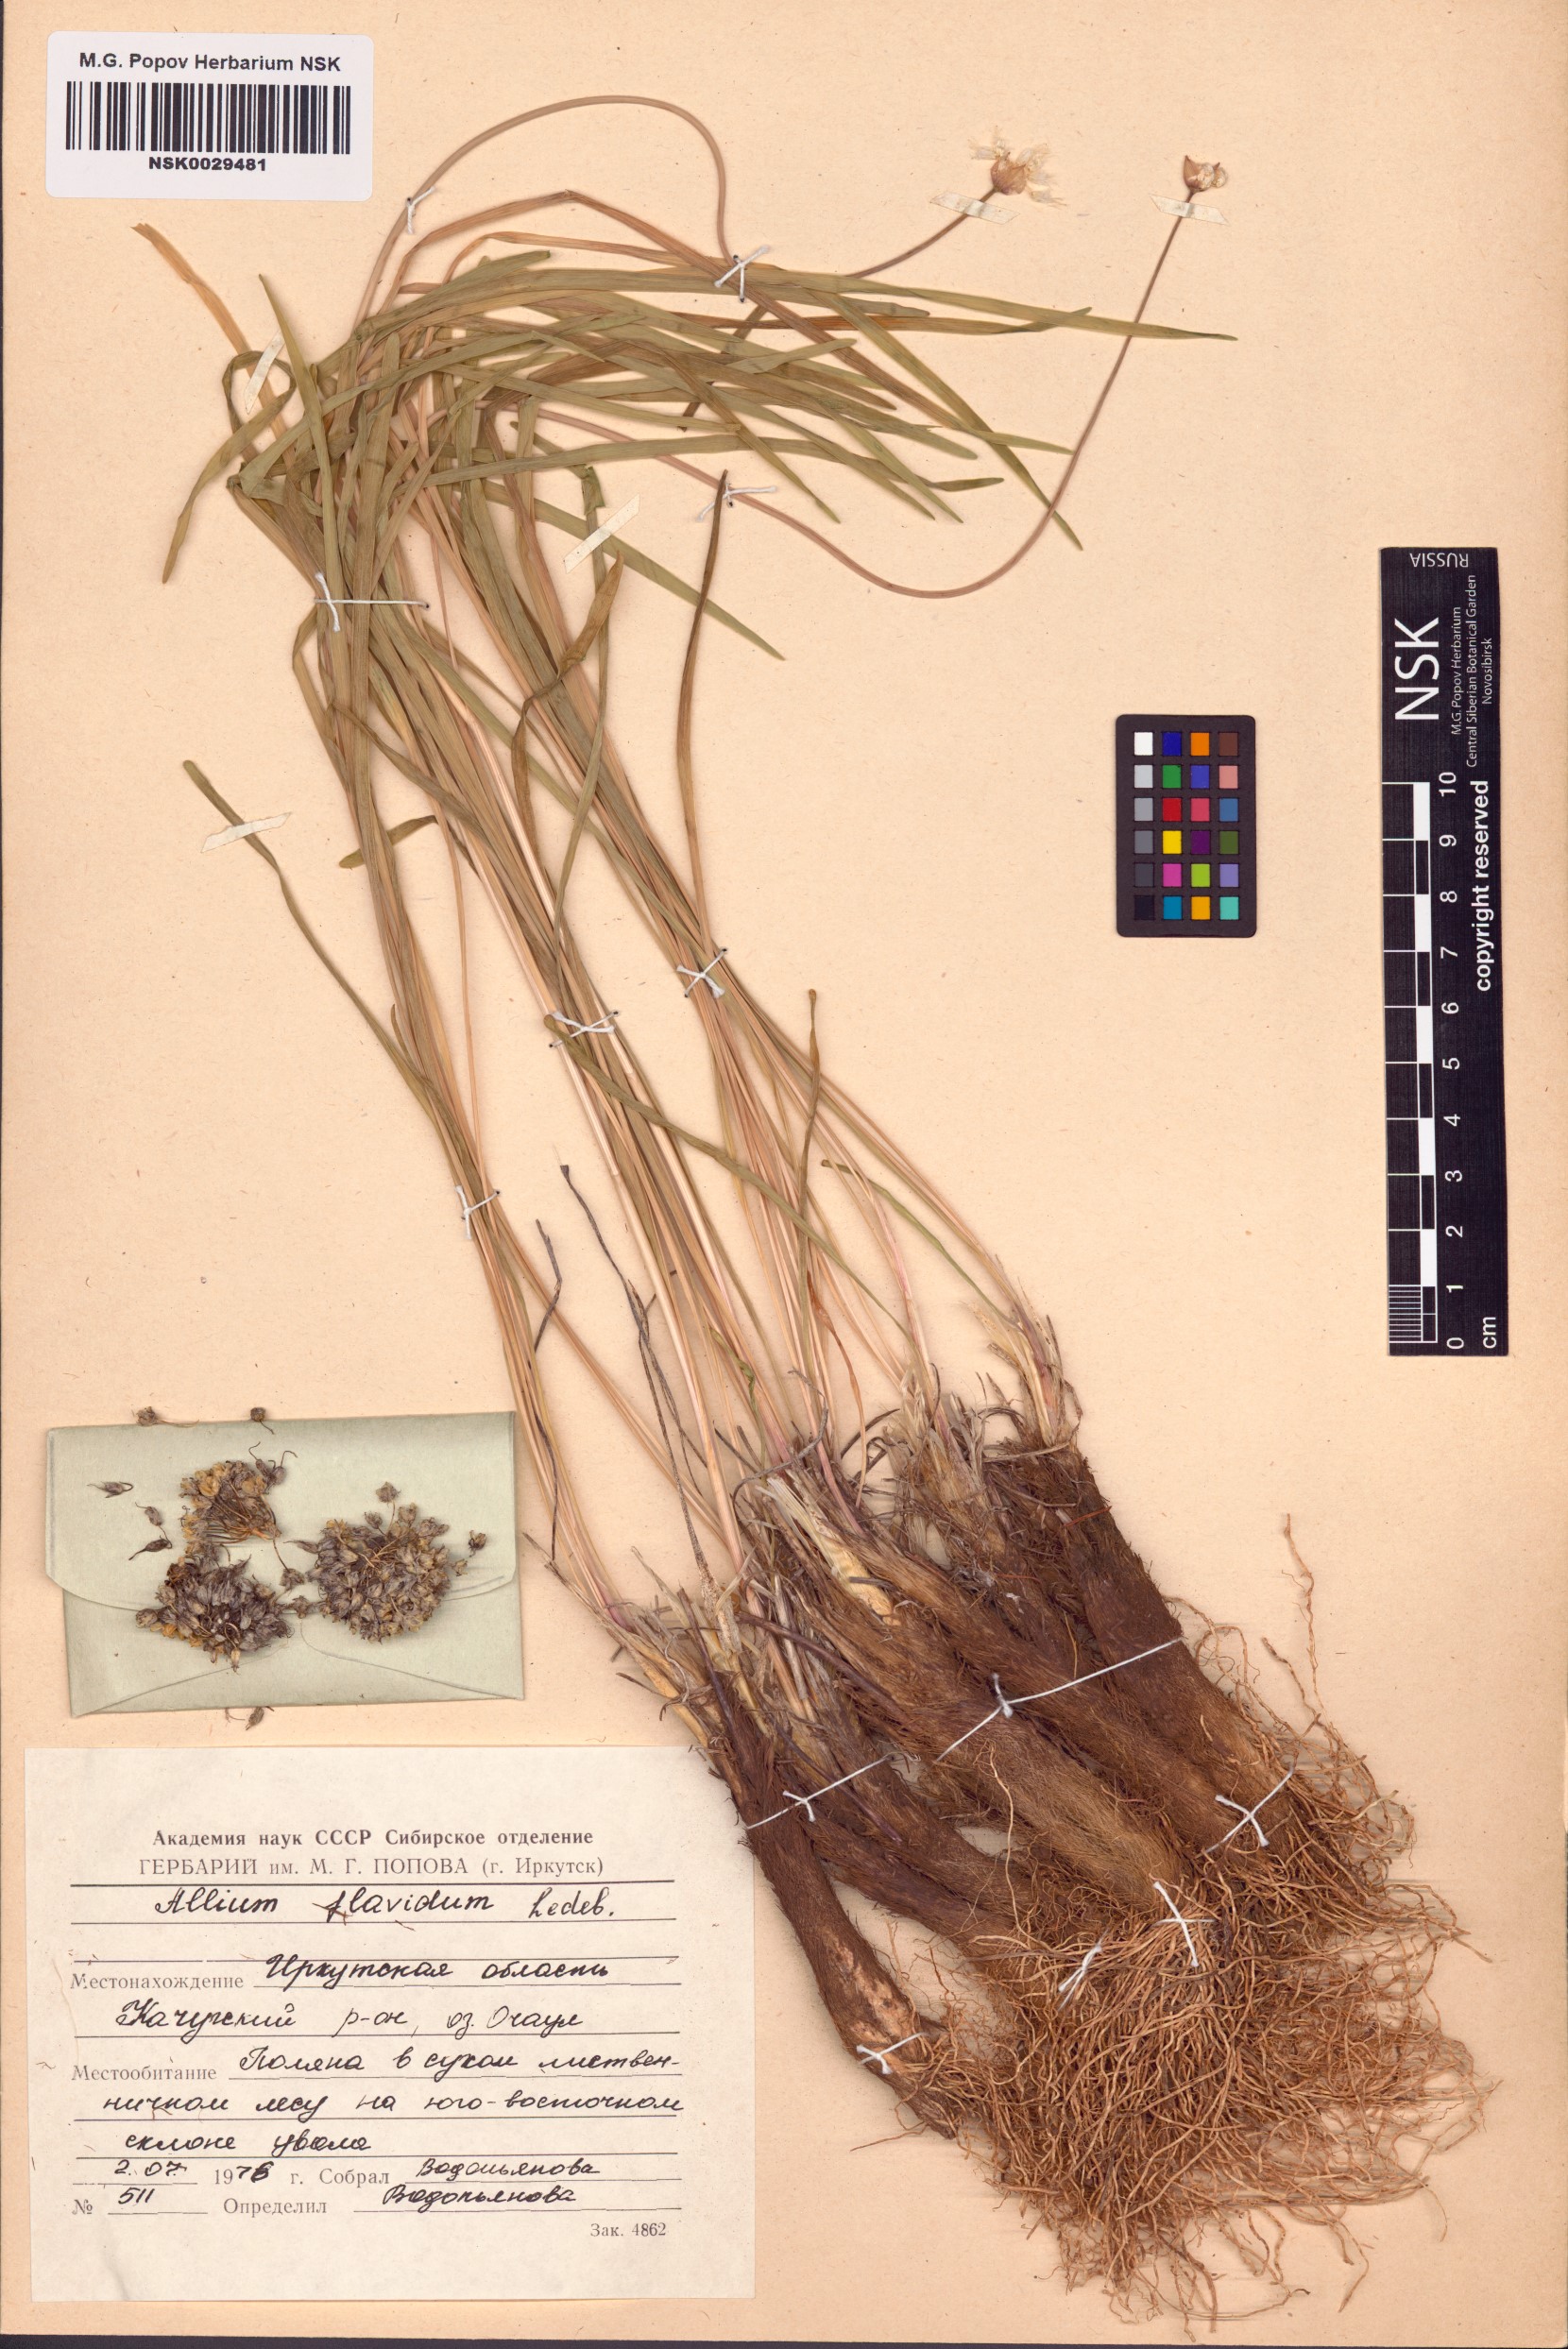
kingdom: Plantae
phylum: Tracheophyta
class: Liliopsida
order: Asparagales
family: Amaryllidaceae
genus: Allium
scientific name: Allium flavidum
